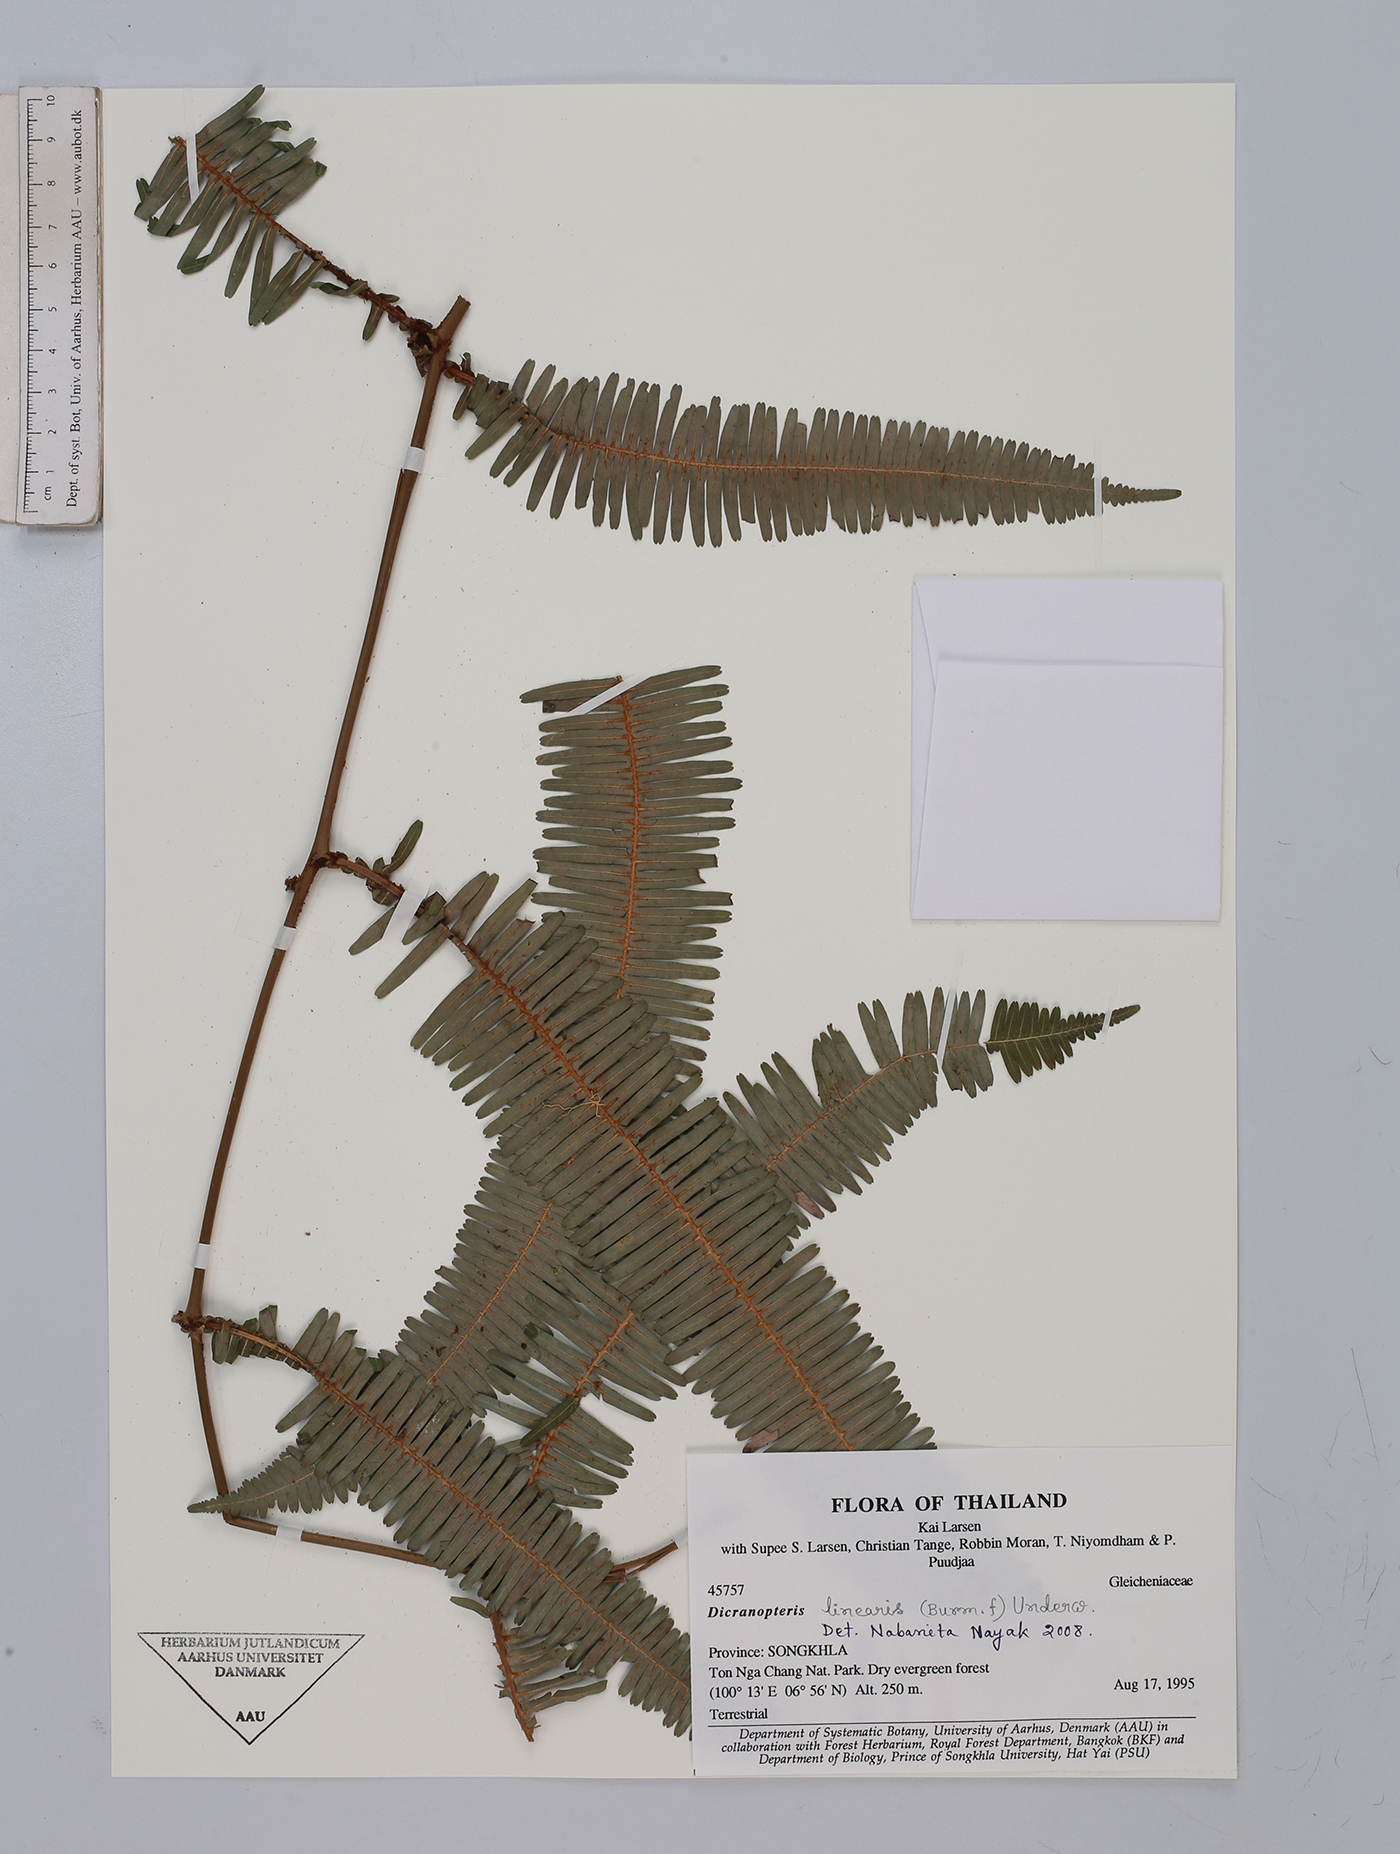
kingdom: Plantae
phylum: Tracheophyta
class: Polypodiopsida
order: Gleicheniales
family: Gleicheniaceae
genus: Dicranopteris
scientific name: Dicranopteris linearis
